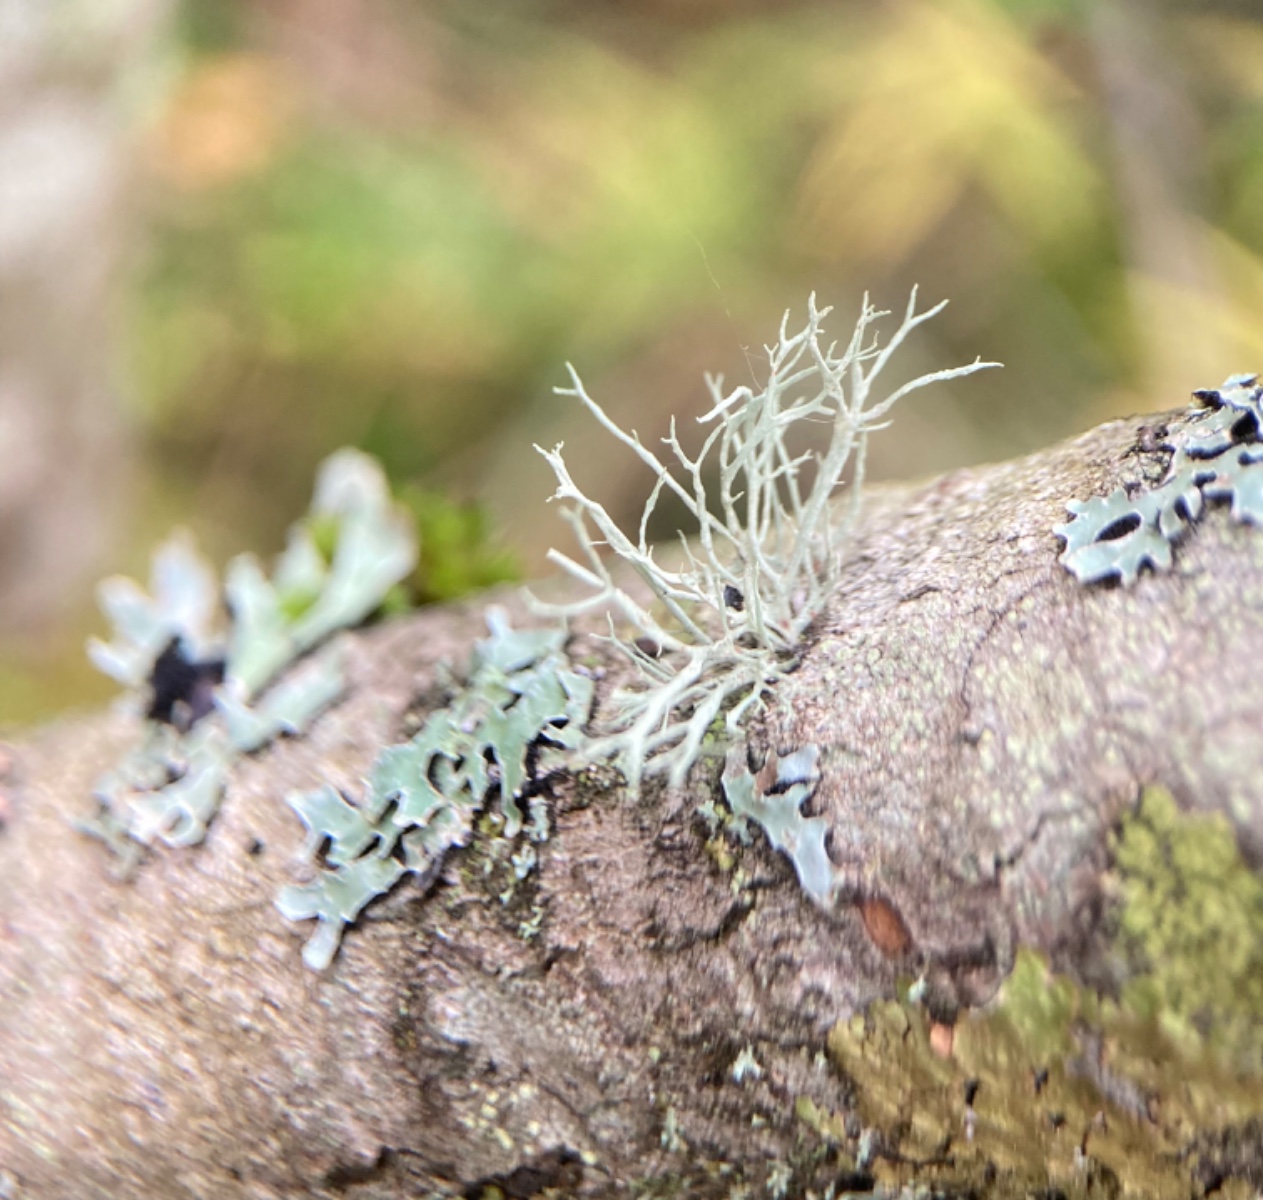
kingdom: Fungi
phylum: Ascomycota
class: Lecanoromycetes
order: Lecanorales
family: Ramalinaceae
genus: Ramalina
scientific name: Ramalina farinacea
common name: melet grenlav
